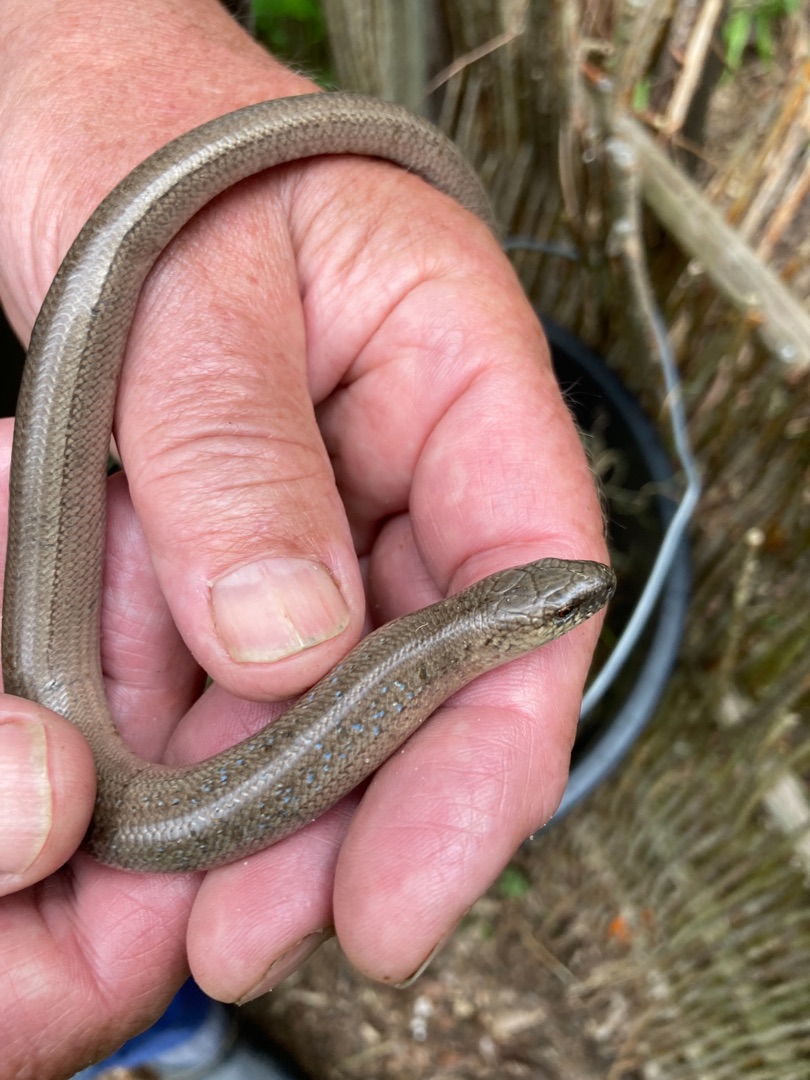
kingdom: Animalia
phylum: Chordata
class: Squamata
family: Anguidae
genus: Anguis
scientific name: Anguis fragilis
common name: Stålorm
